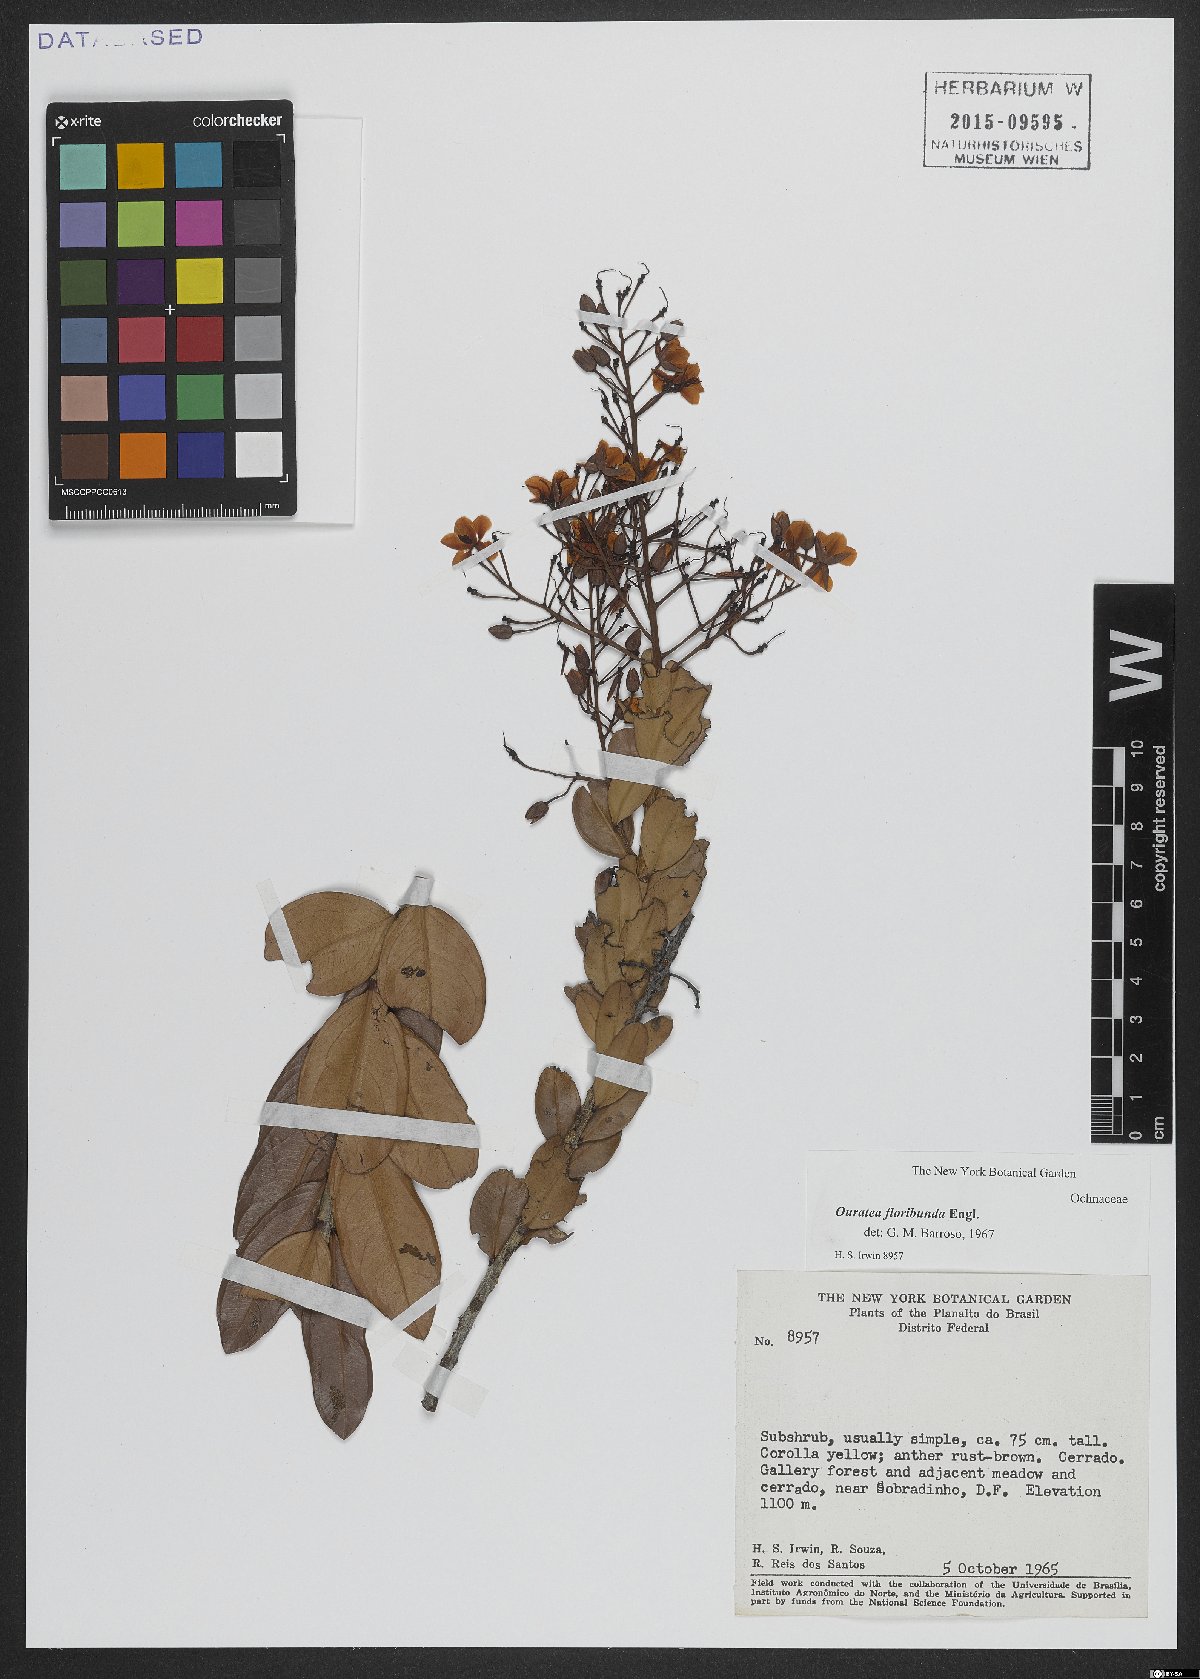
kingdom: Plantae
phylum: Tracheophyta
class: Magnoliopsida
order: Malpighiales
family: Ochnaceae
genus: Ouratea
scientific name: Ouratea floribunda
